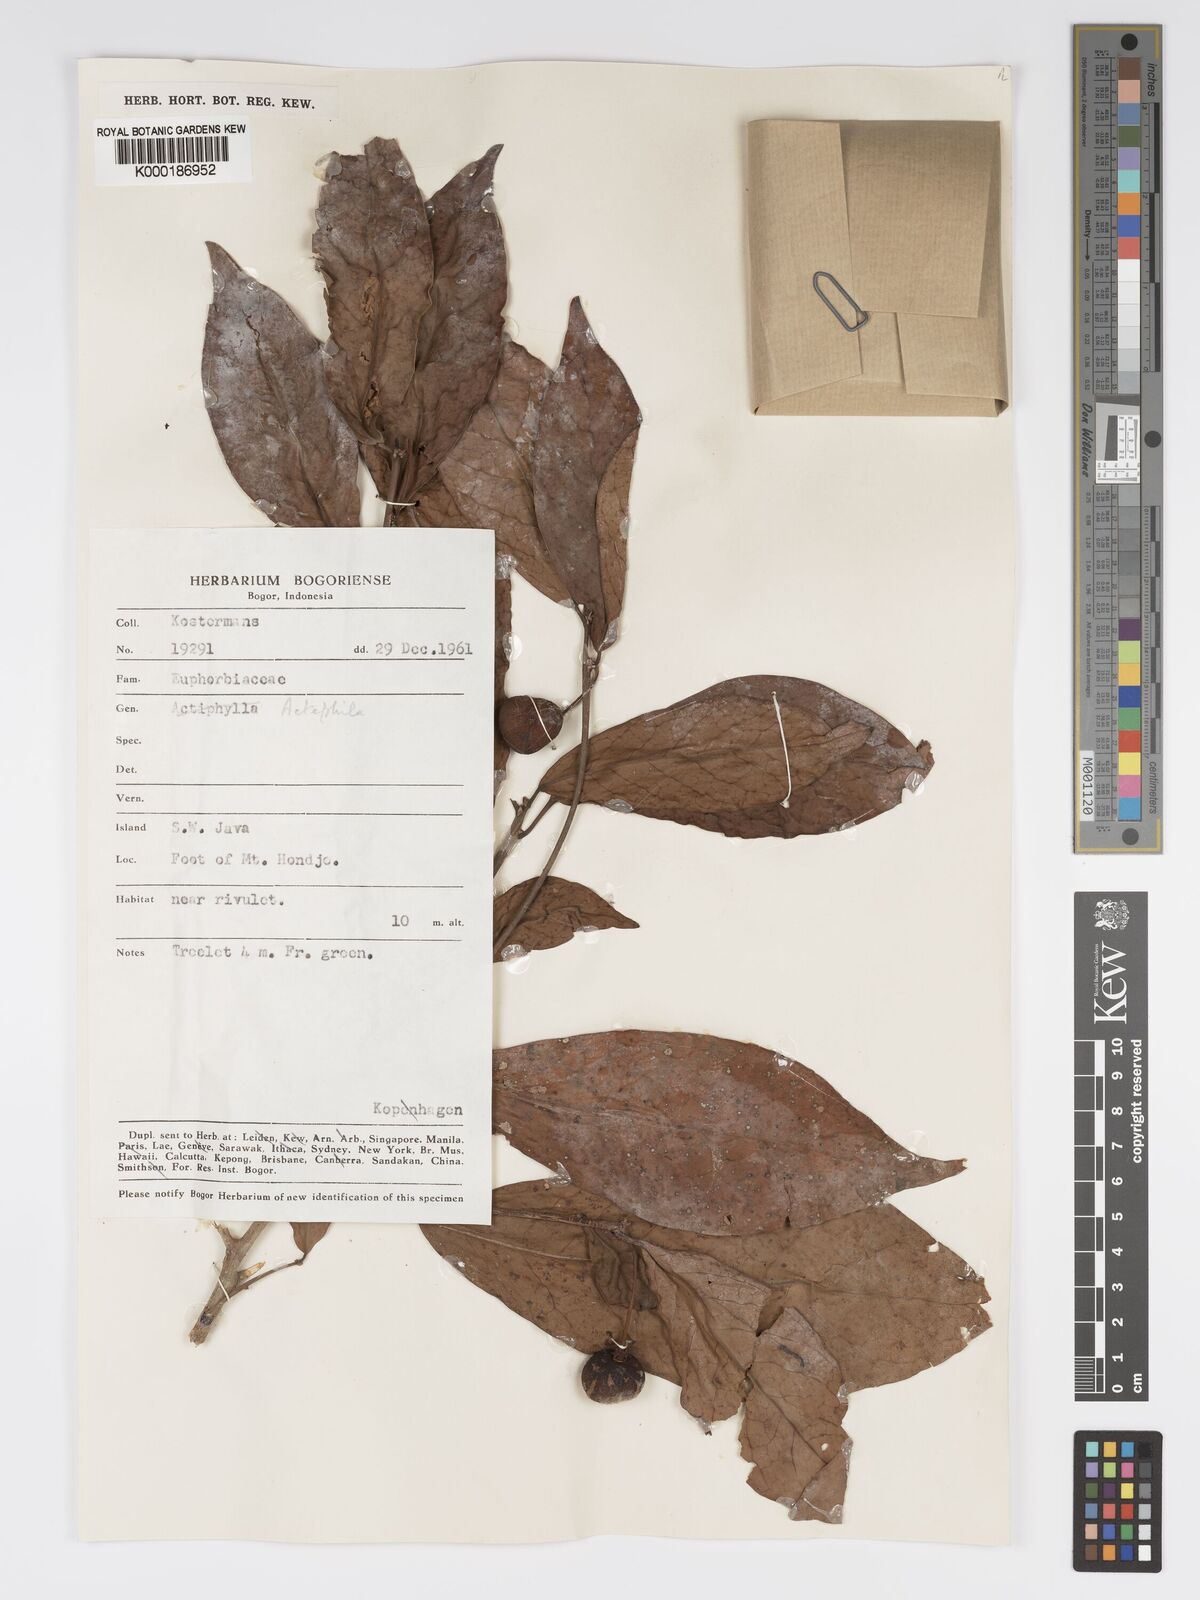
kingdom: Plantae
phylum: Tracheophyta
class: Magnoliopsida
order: Malpighiales
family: Phyllanthaceae
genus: Actephila
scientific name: Actephila
